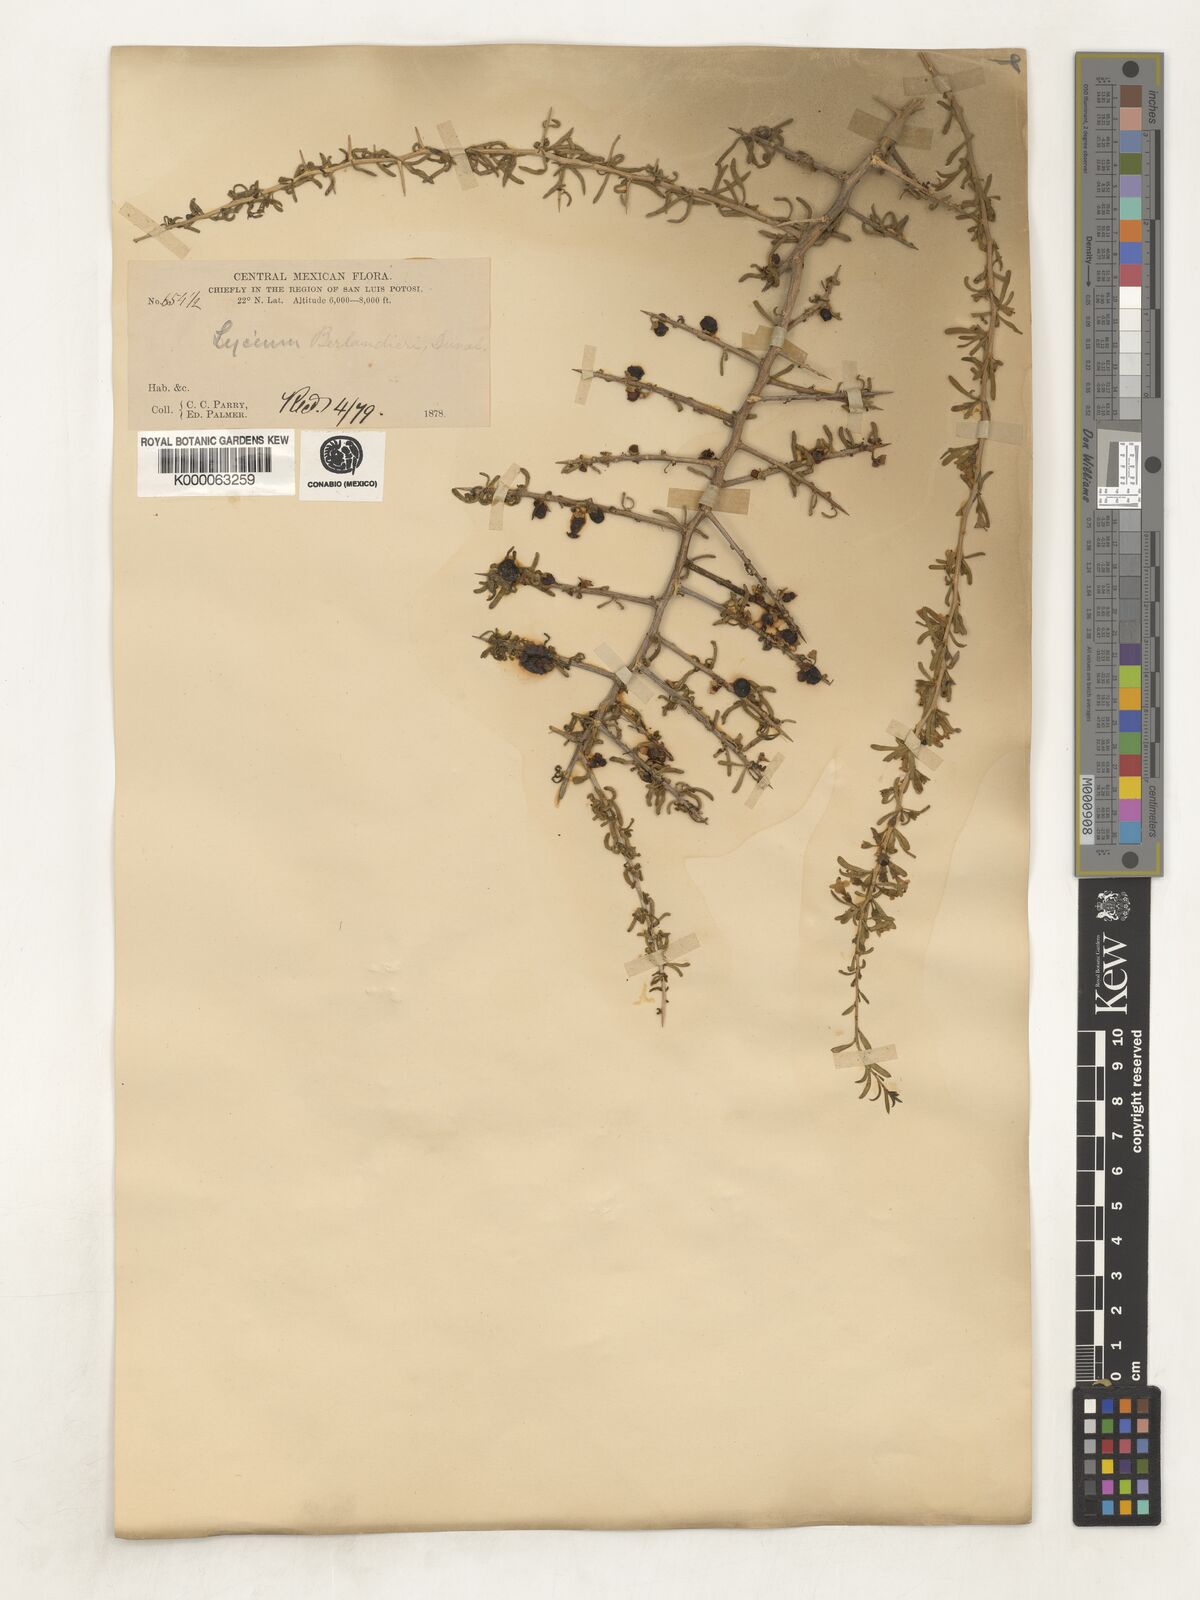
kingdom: Plantae
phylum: Tracheophyta
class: Magnoliopsida
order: Solanales
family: Solanaceae
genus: Lycium
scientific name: Lycium berlandieri
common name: Berlandier wolfberry
